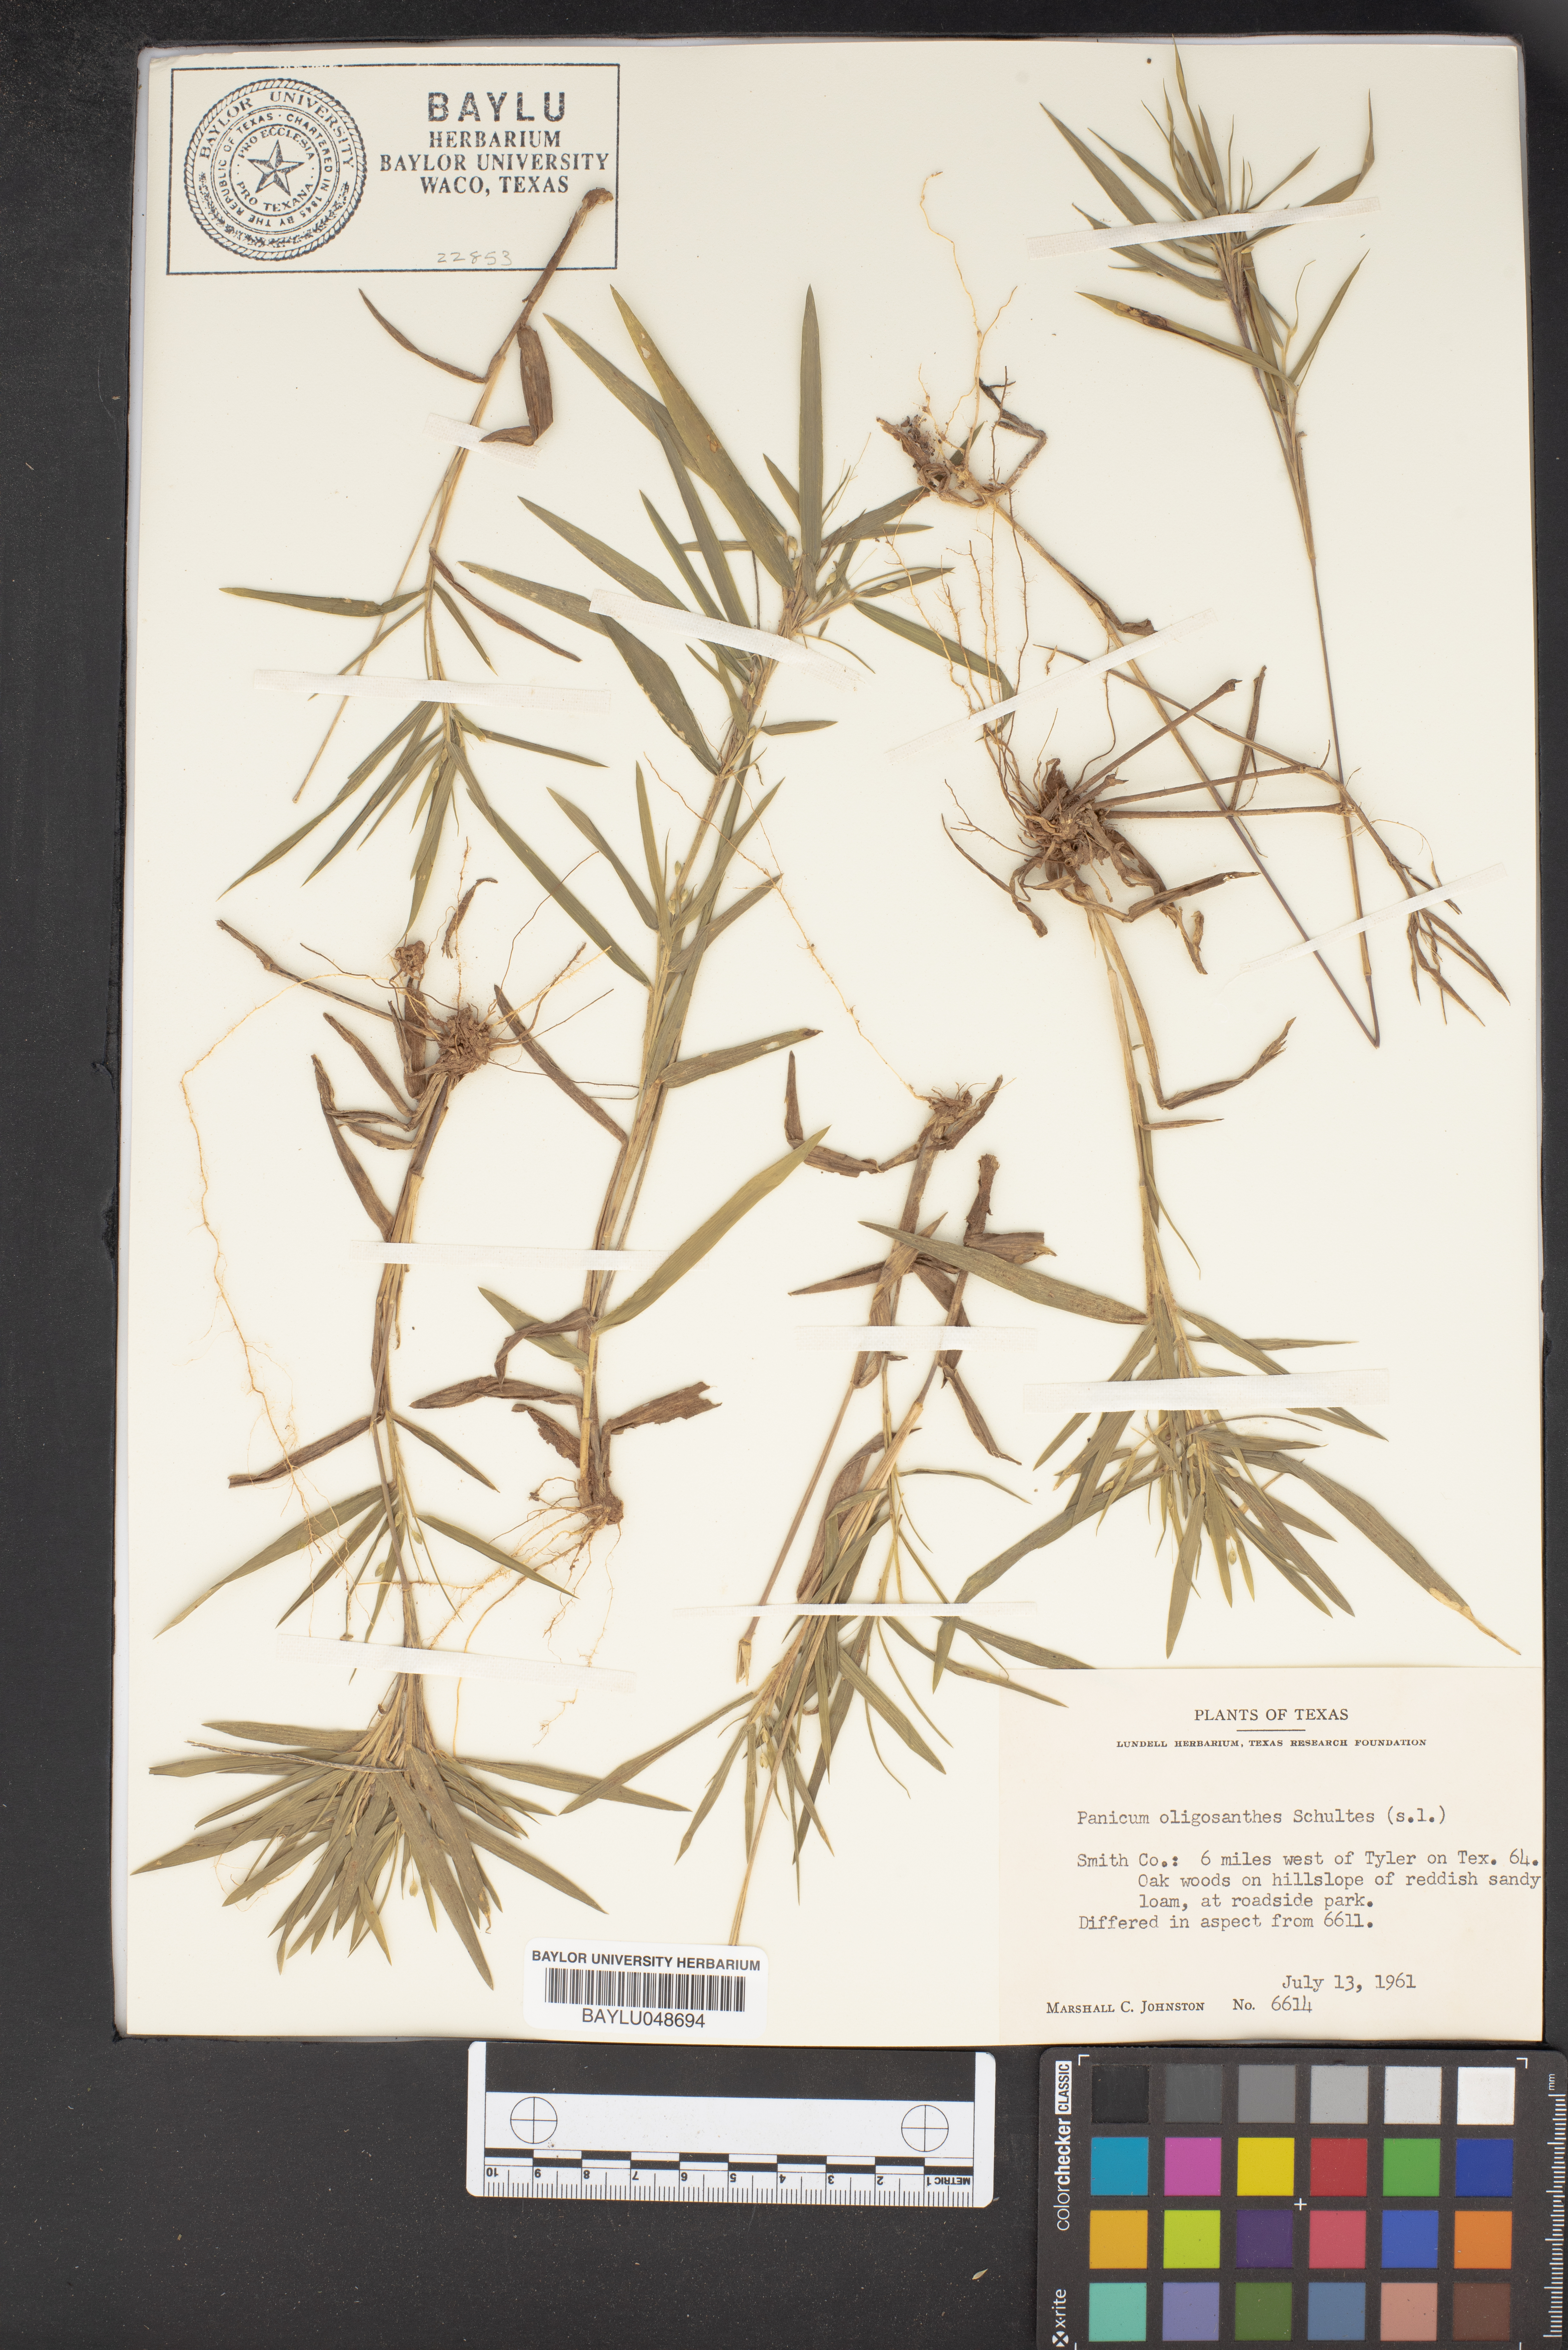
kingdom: Plantae
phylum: Tracheophyta
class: Liliopsida
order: Poales
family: Poaceae
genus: Dichanthelium
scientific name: Dichanthelium oligosanthes
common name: Few-anther obscuregrass
